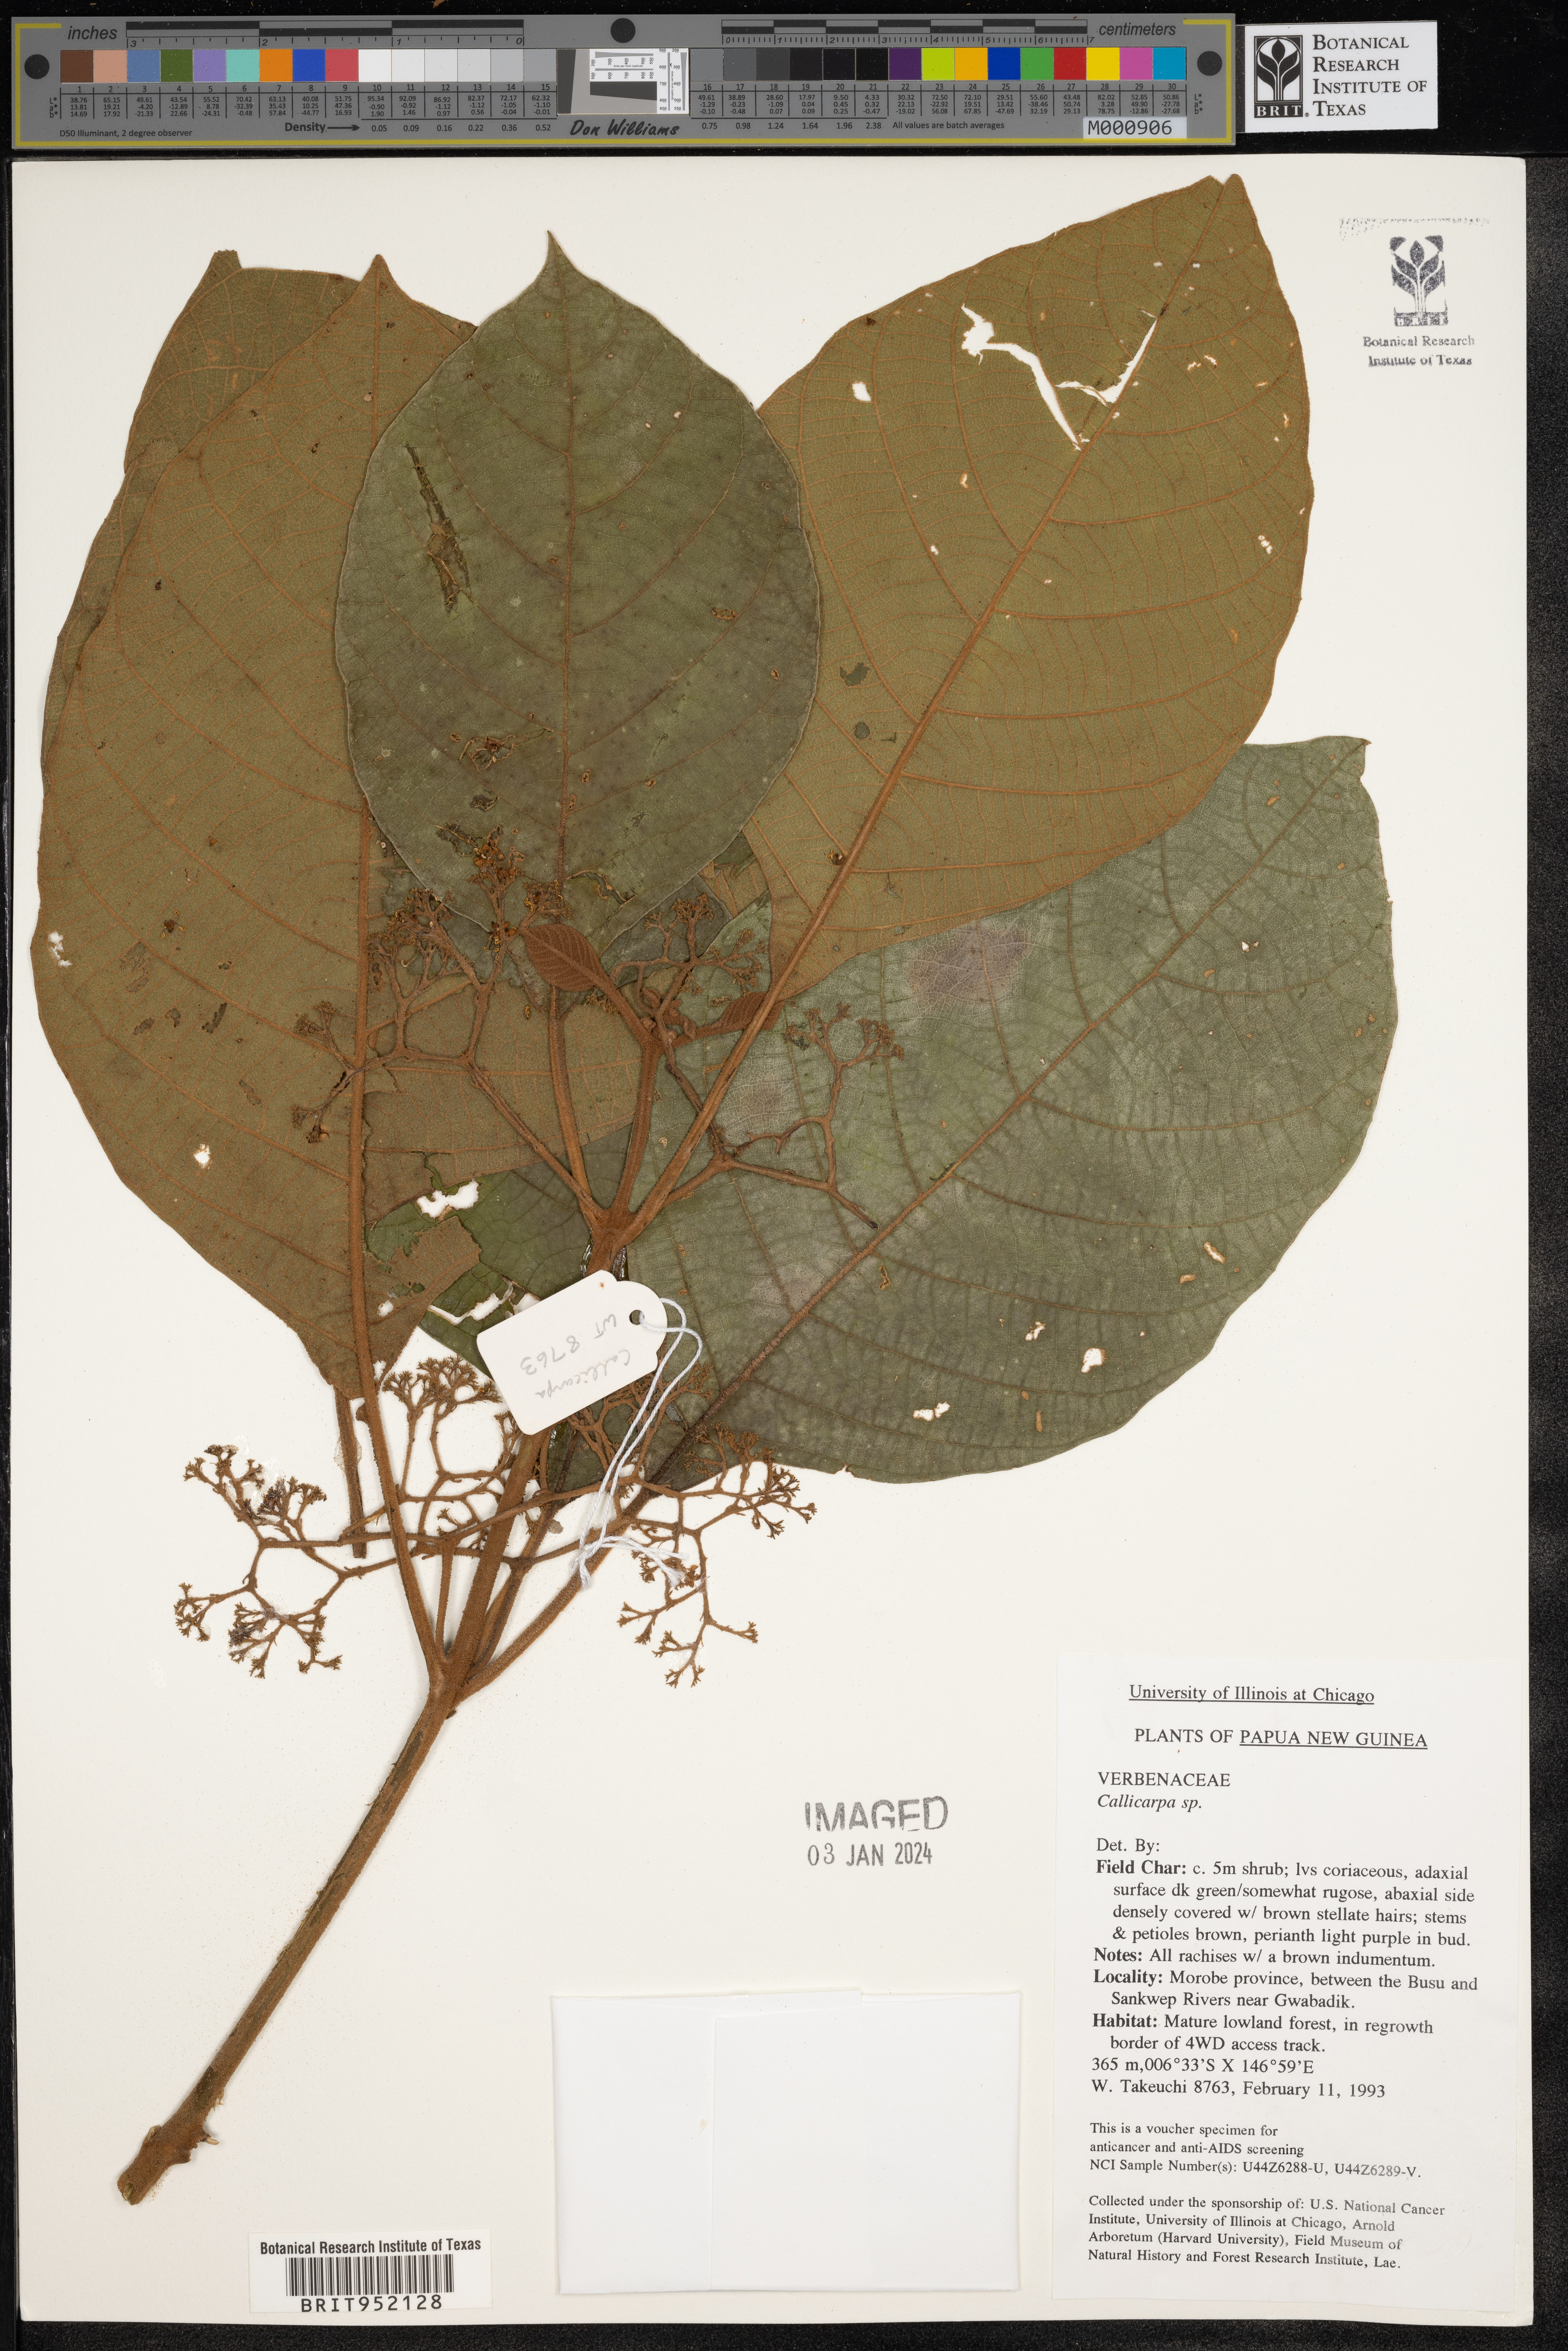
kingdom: Plantae
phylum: Tracheophyta
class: Magnoliopsida
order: Lamiales
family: Lamiaceae
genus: Callicarpa
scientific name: Callicarpa
